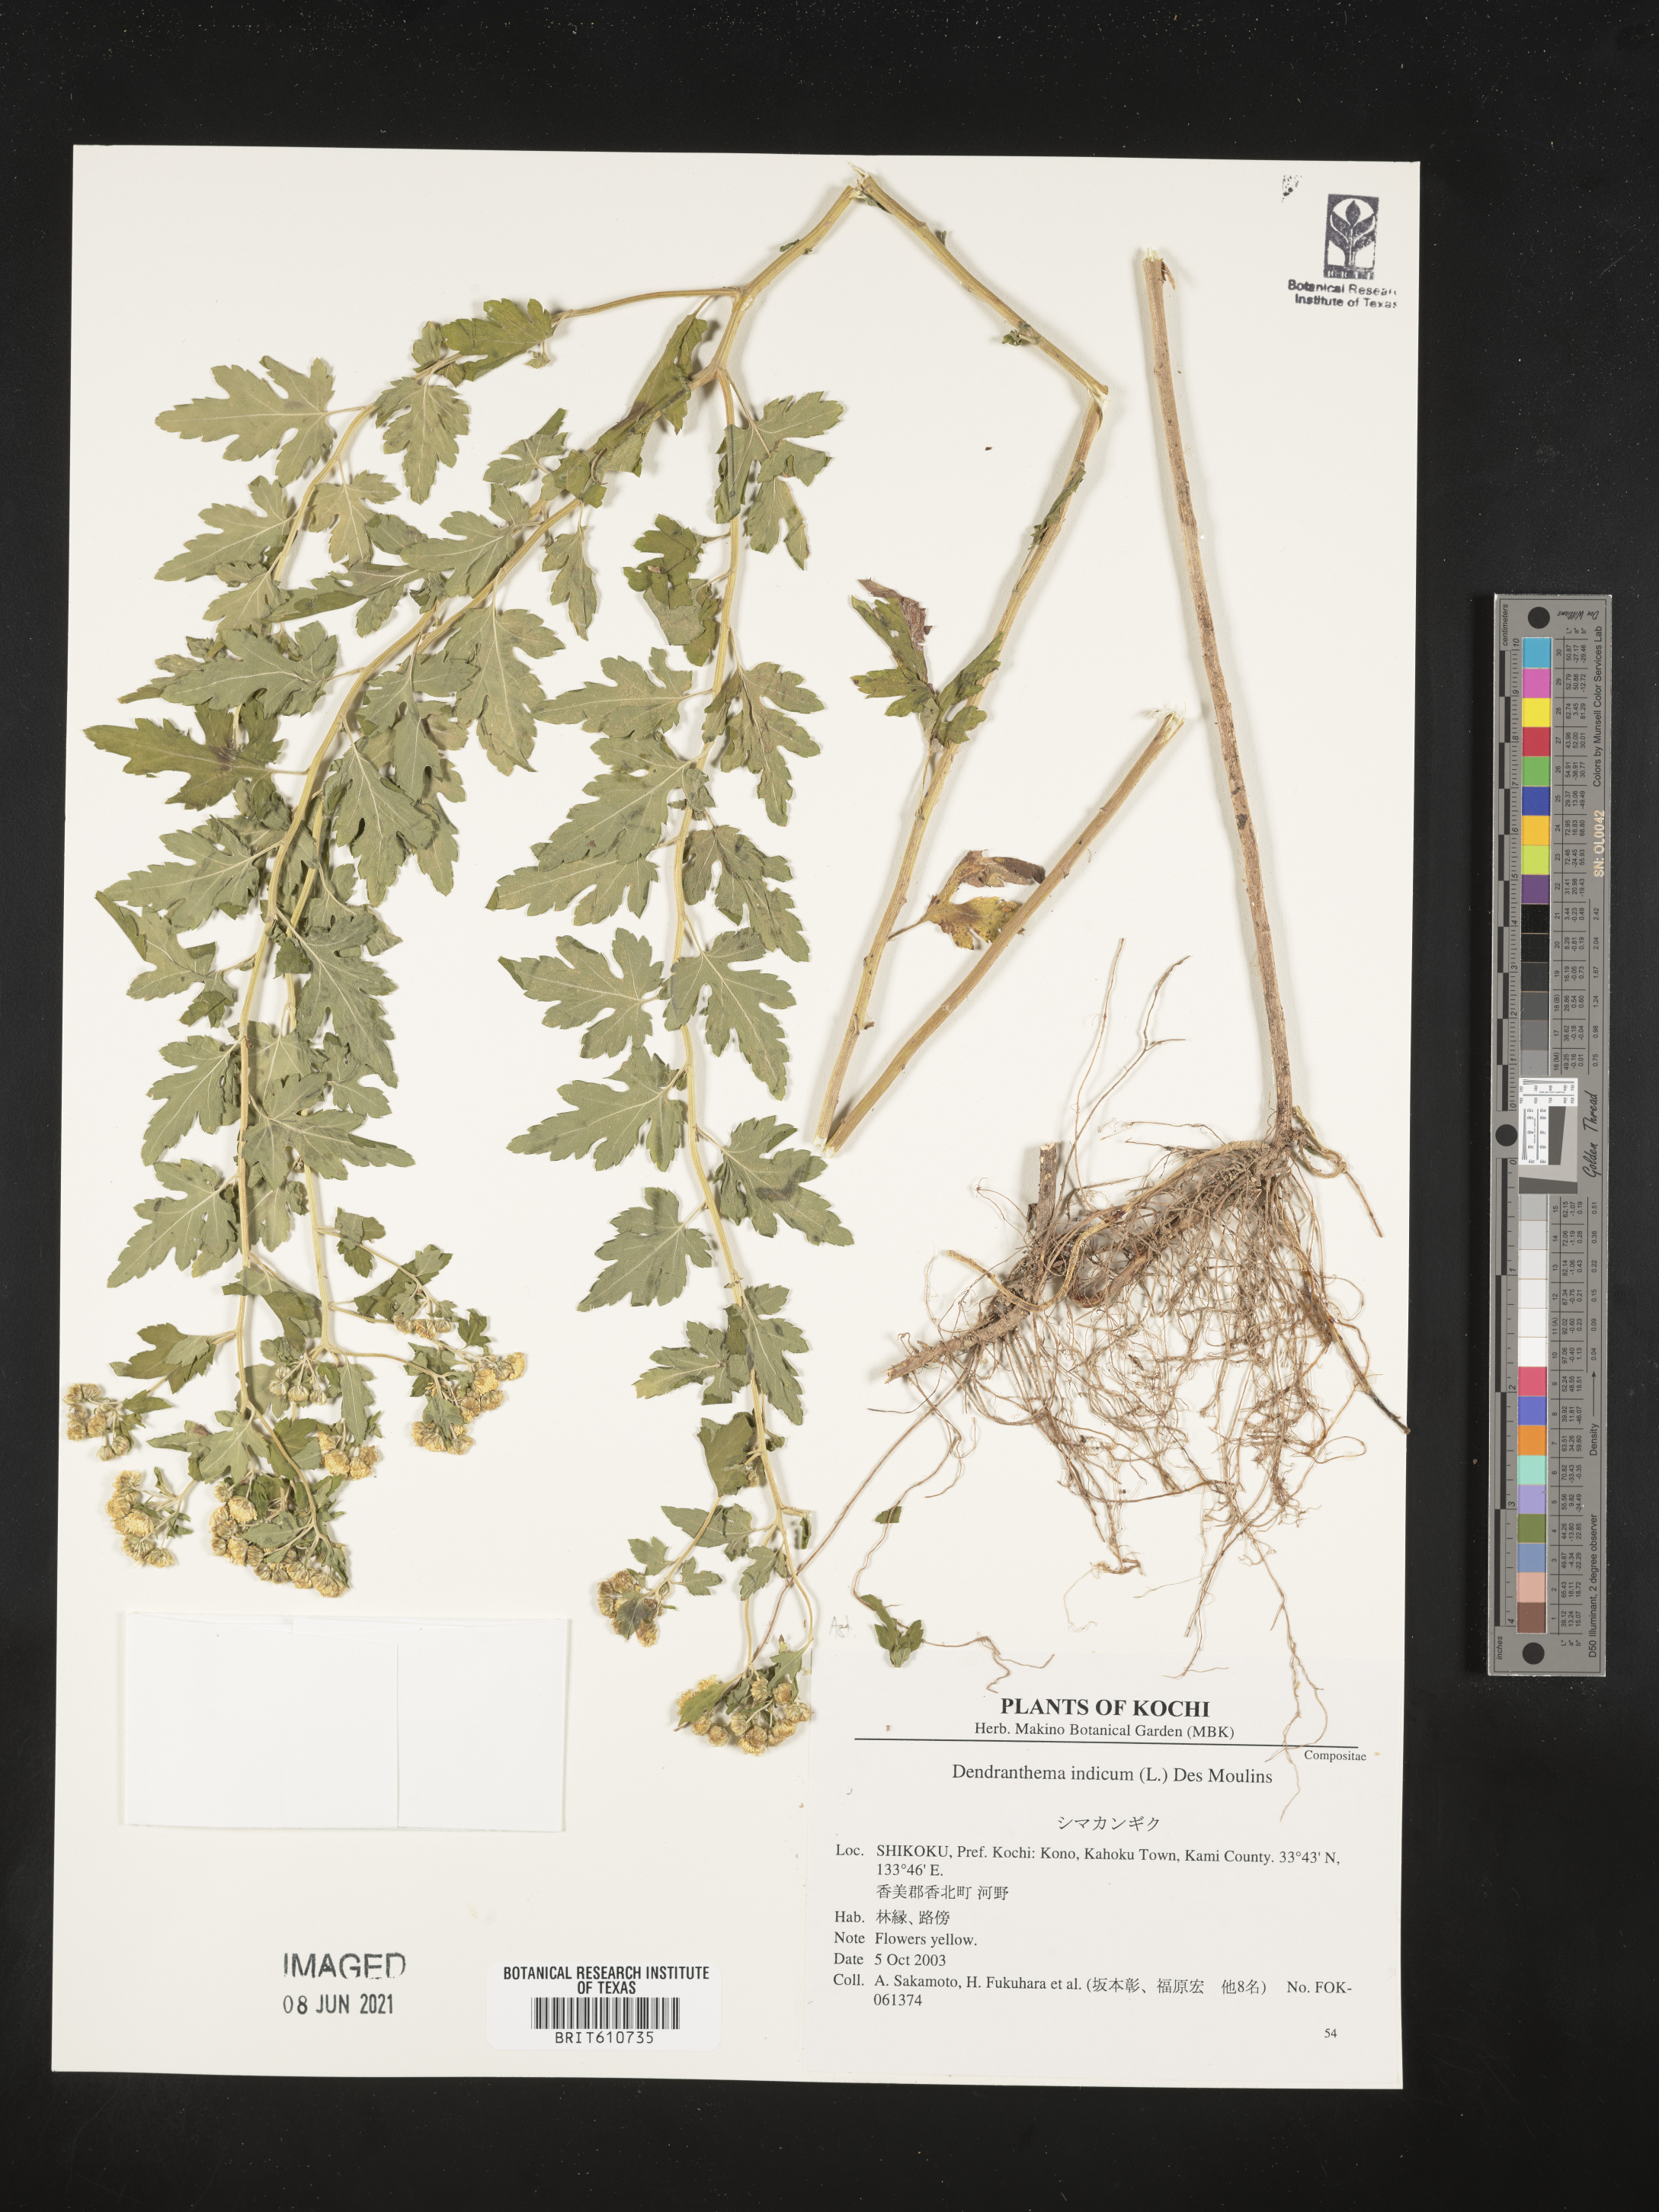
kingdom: Plantae
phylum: Tracheophyta
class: Magnoliopsida
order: Asterales
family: Asteraceae
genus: Chrysanthemum
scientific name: Chrysanthemum indicum
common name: Indian chrysanthemum
